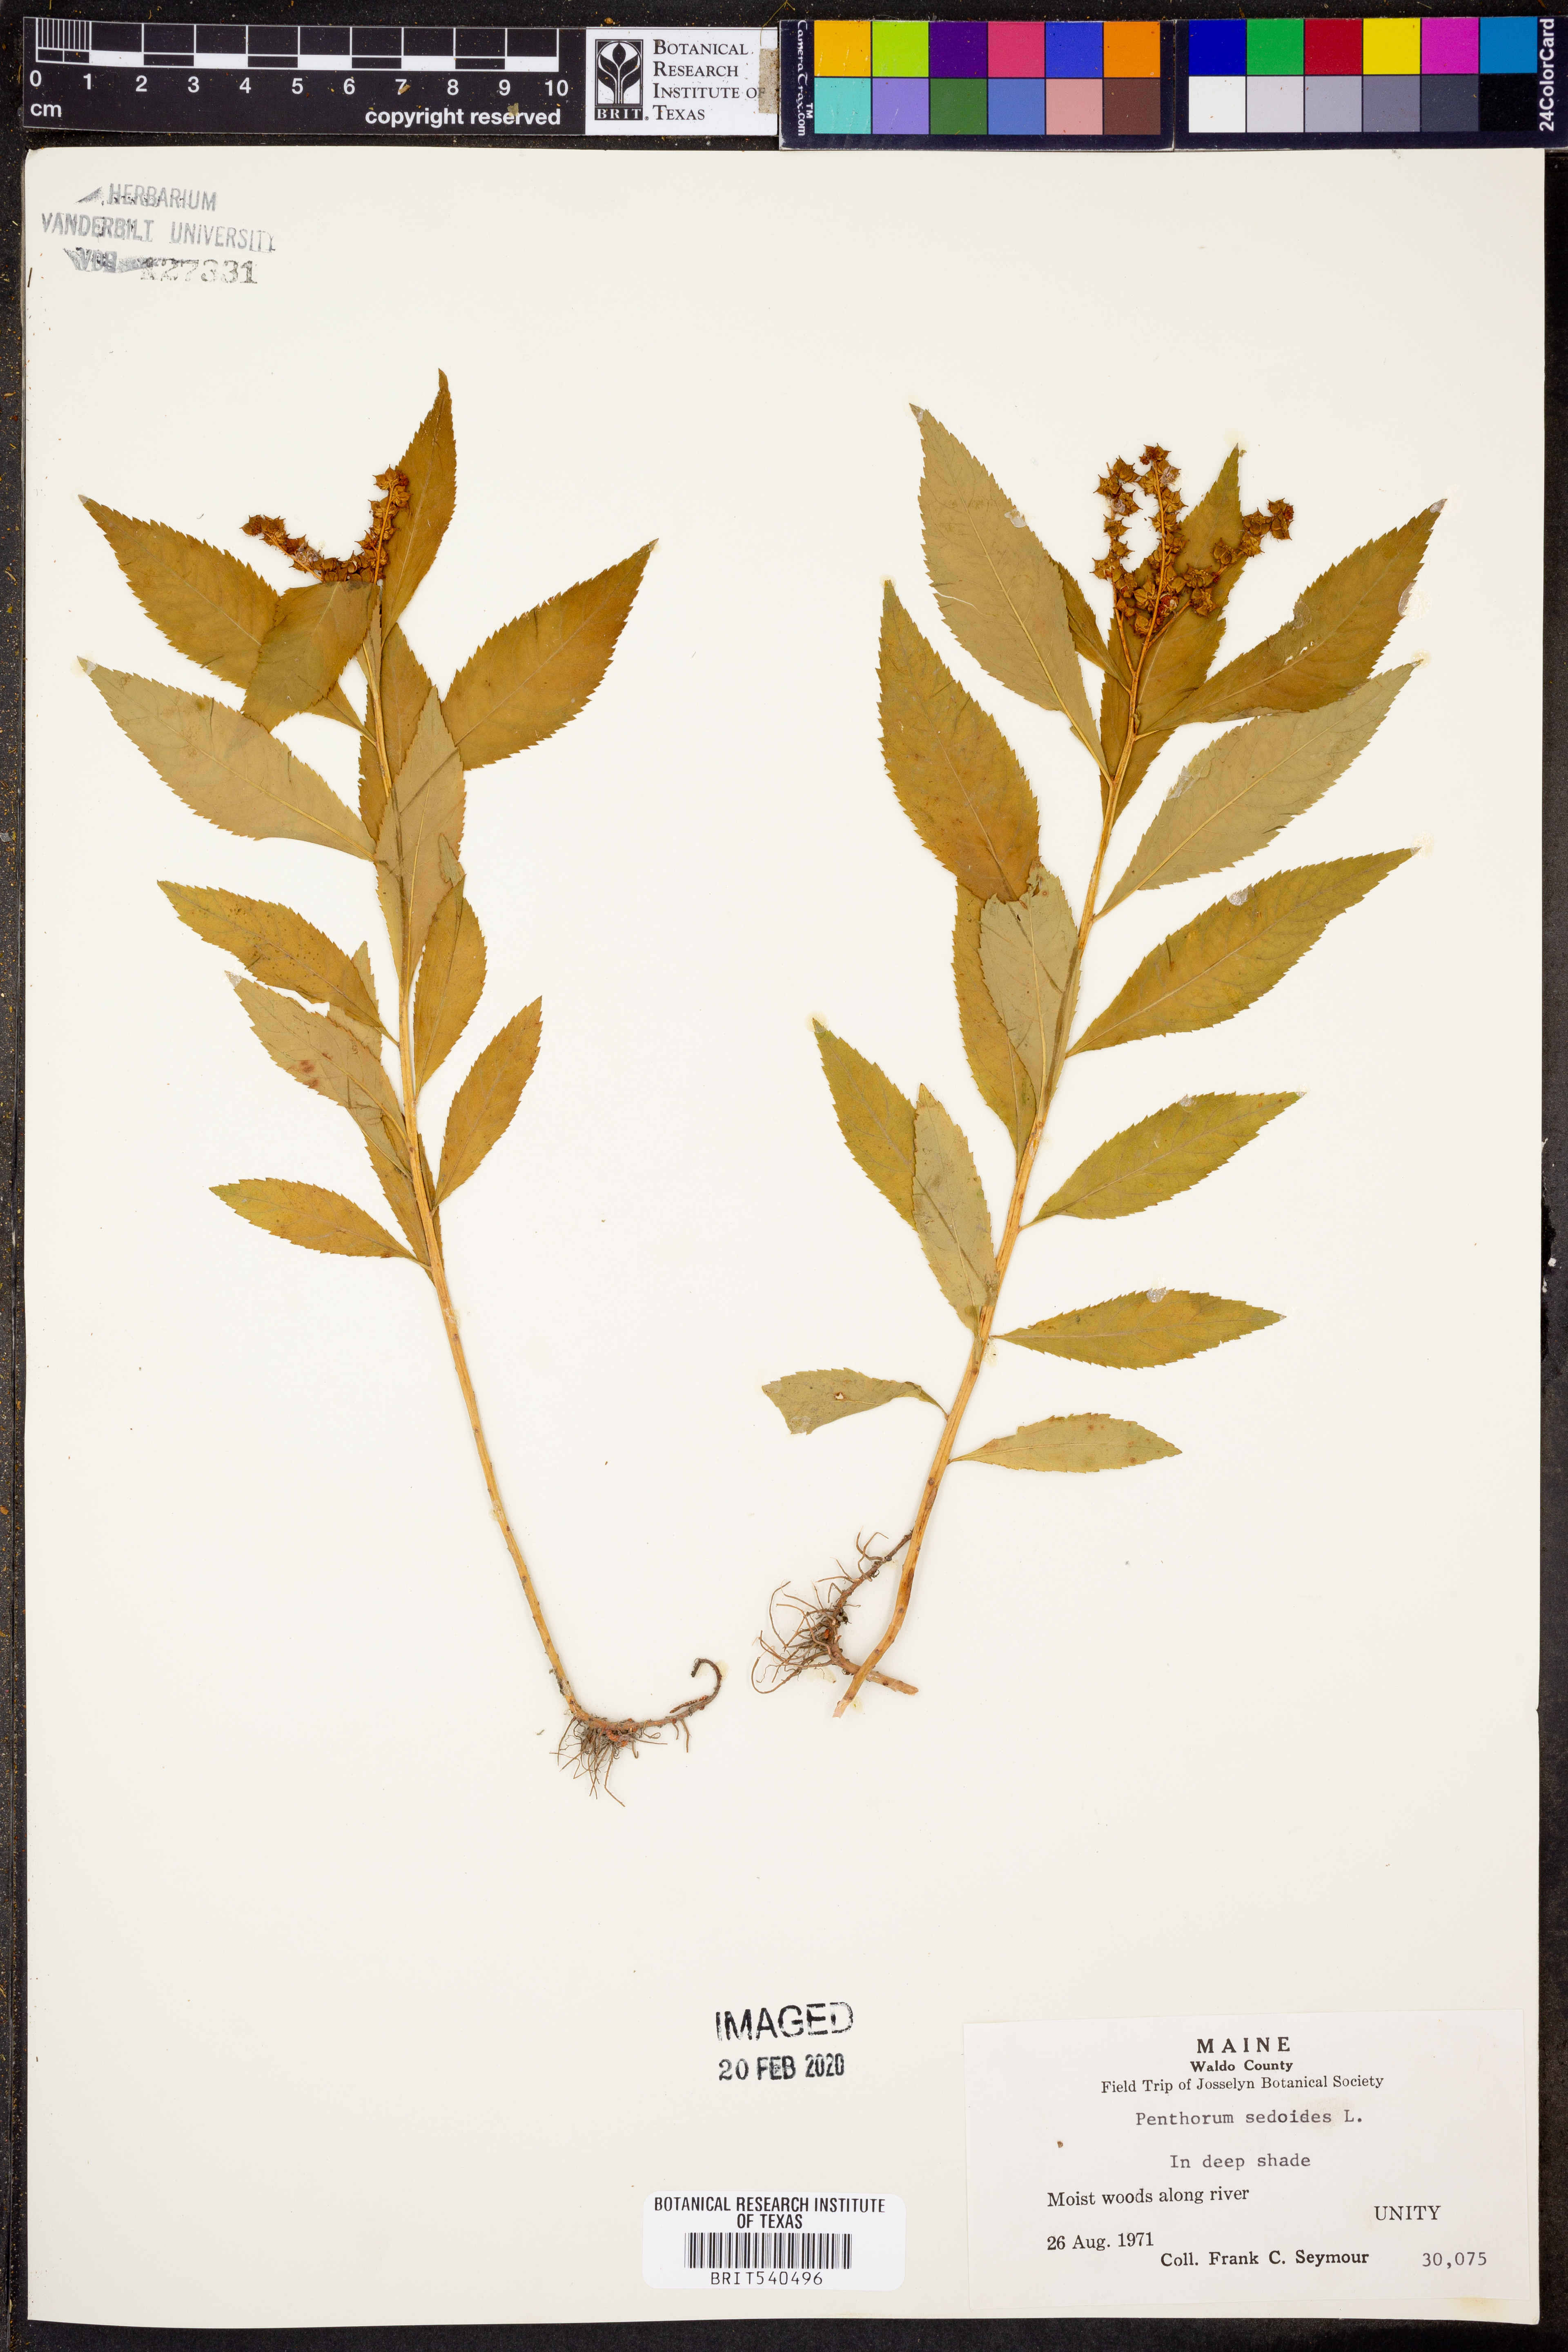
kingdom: Plantae
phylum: Tracheophyta
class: Magnoliopsida
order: Saxifragales
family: Penthoraceae
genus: Penthorum
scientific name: Penthorum sedoides
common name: Ditch stonecrop
